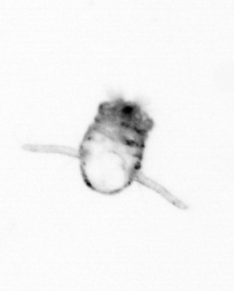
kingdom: Animalia
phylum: Arthropoda
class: Copepoda
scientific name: Copepoda
